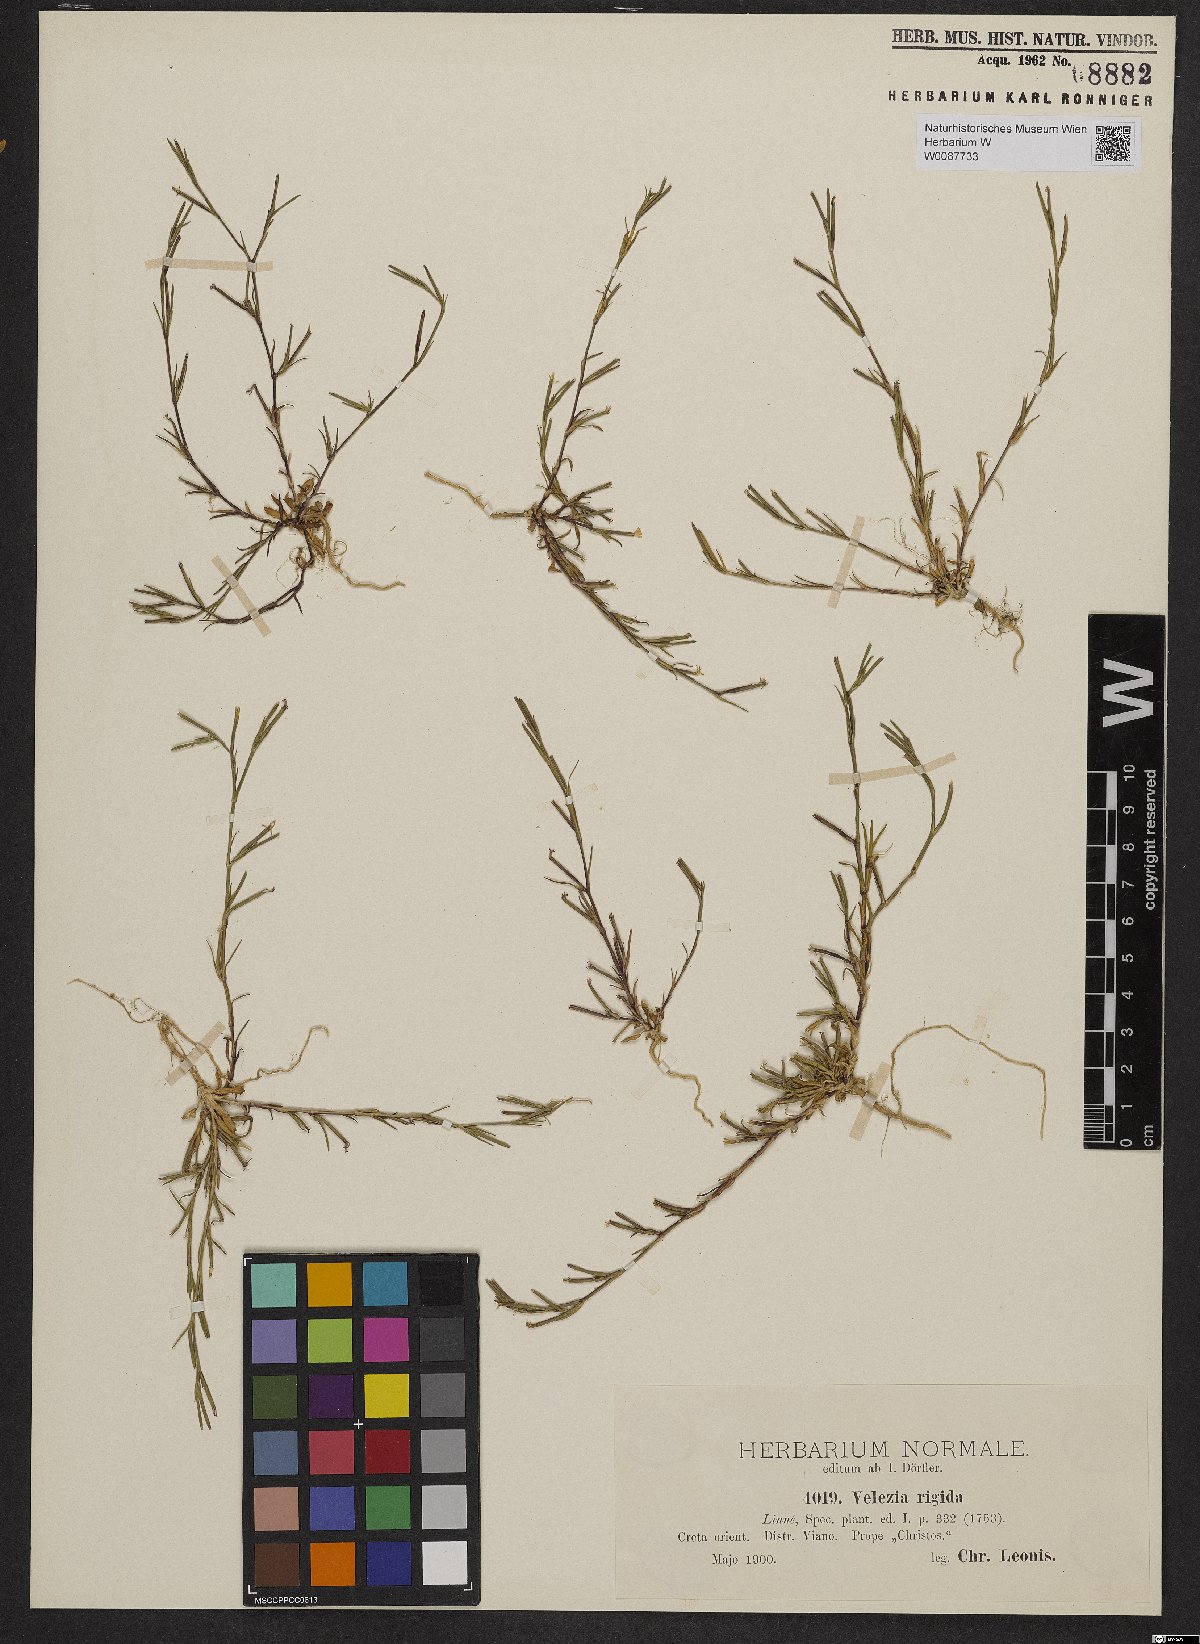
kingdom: Plantae
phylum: Tracheophyta
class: Magnoliopsida
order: Caryophyllales
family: Caryophyllaceae
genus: Dianthus
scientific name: Dianthus nudiflorus
